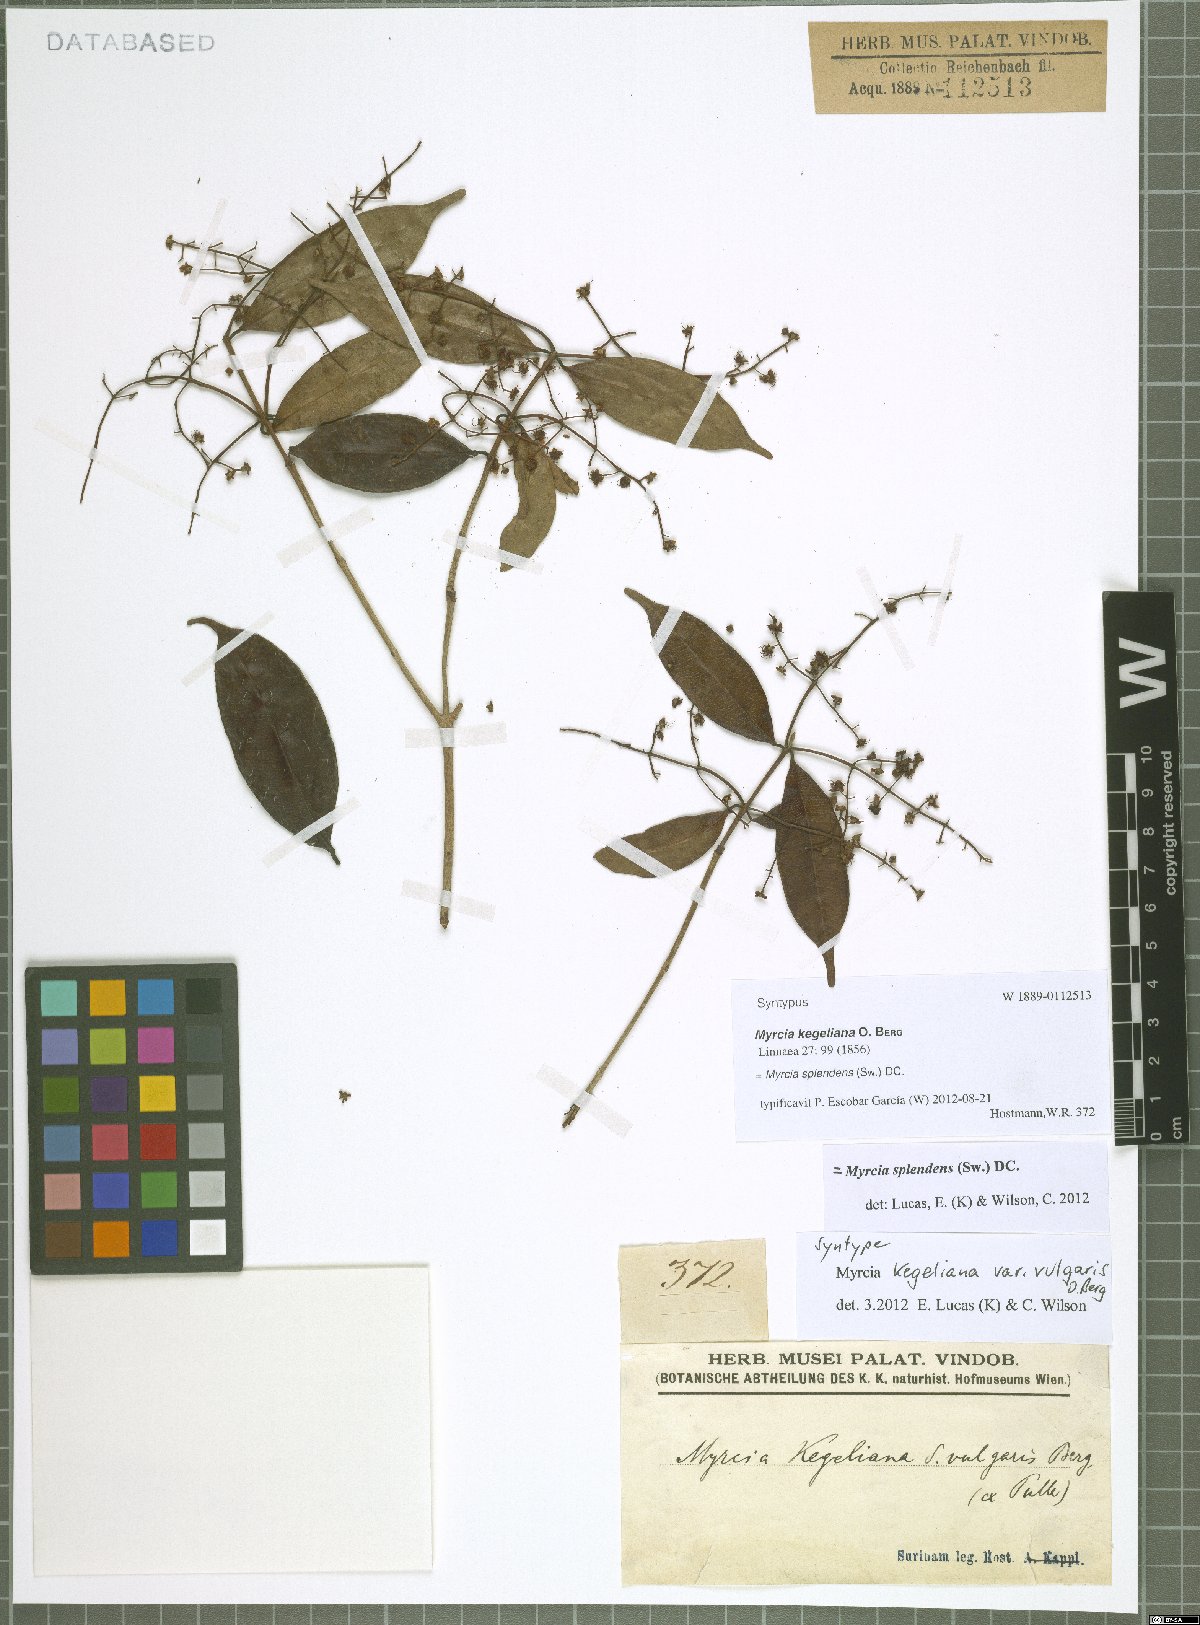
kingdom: Plantae
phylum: Tracheophyta
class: Magnoliopsida
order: Myrtales
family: Myrtaceae
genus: Myrcia
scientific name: Myrcia splendens
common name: Surinam cherry
